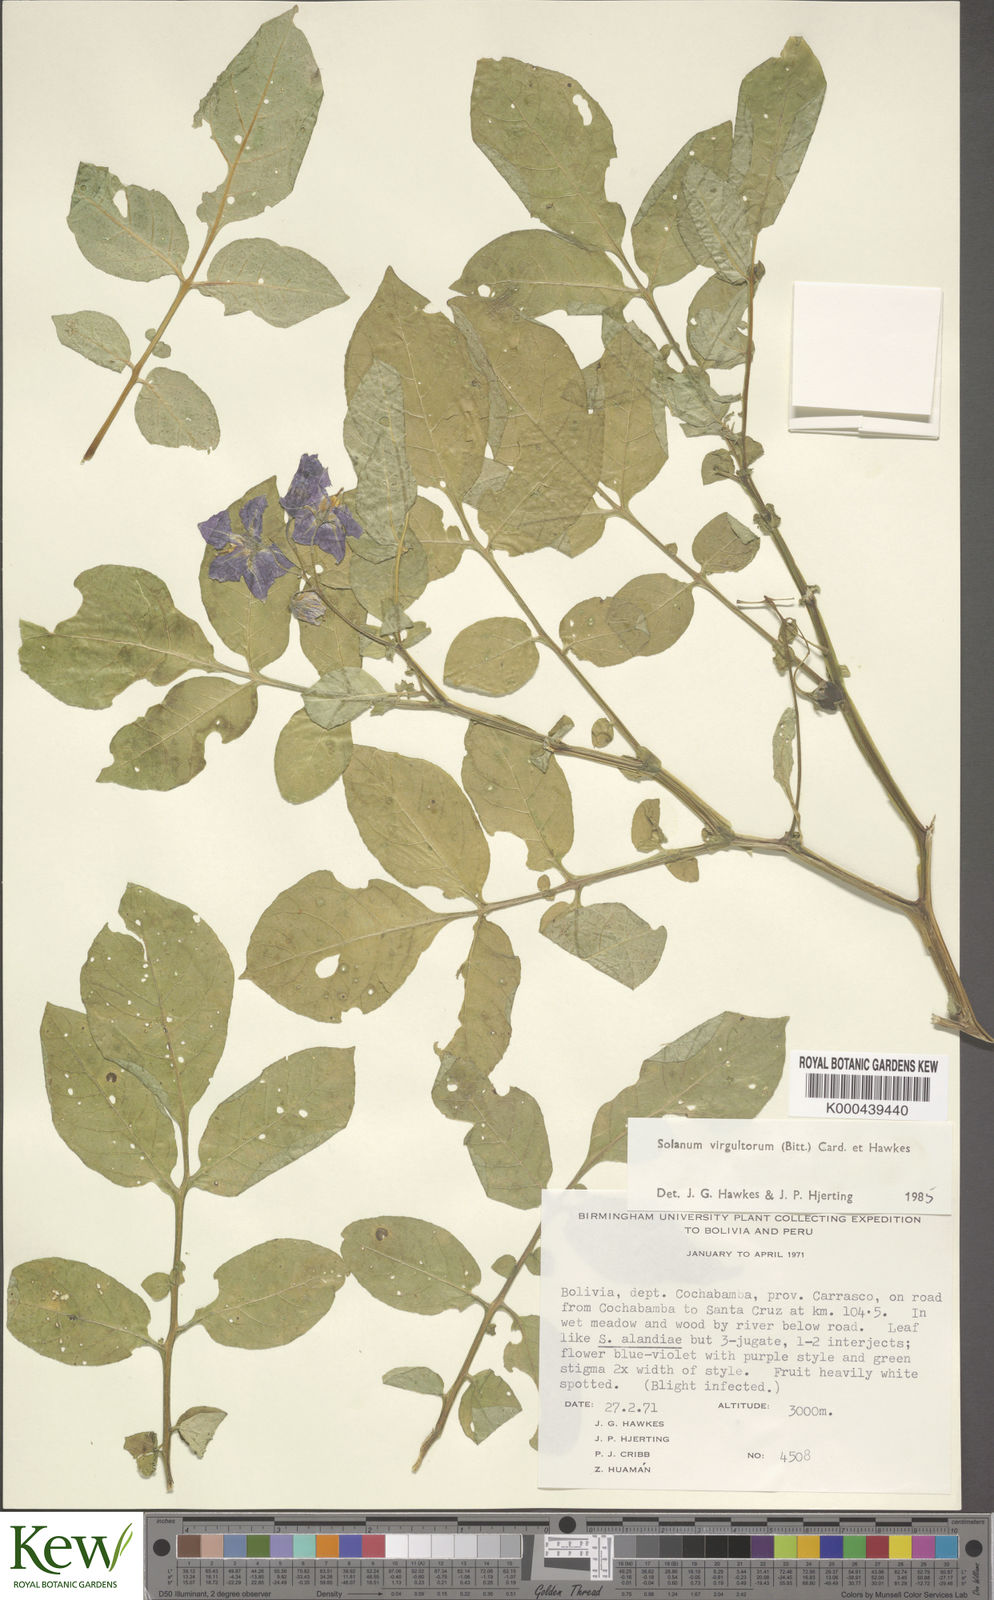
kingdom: Plantae
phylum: Tracheophyta
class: Magnoliopsida
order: Solanales
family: Solanaceae
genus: Solanum
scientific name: Solanum brevicaule
